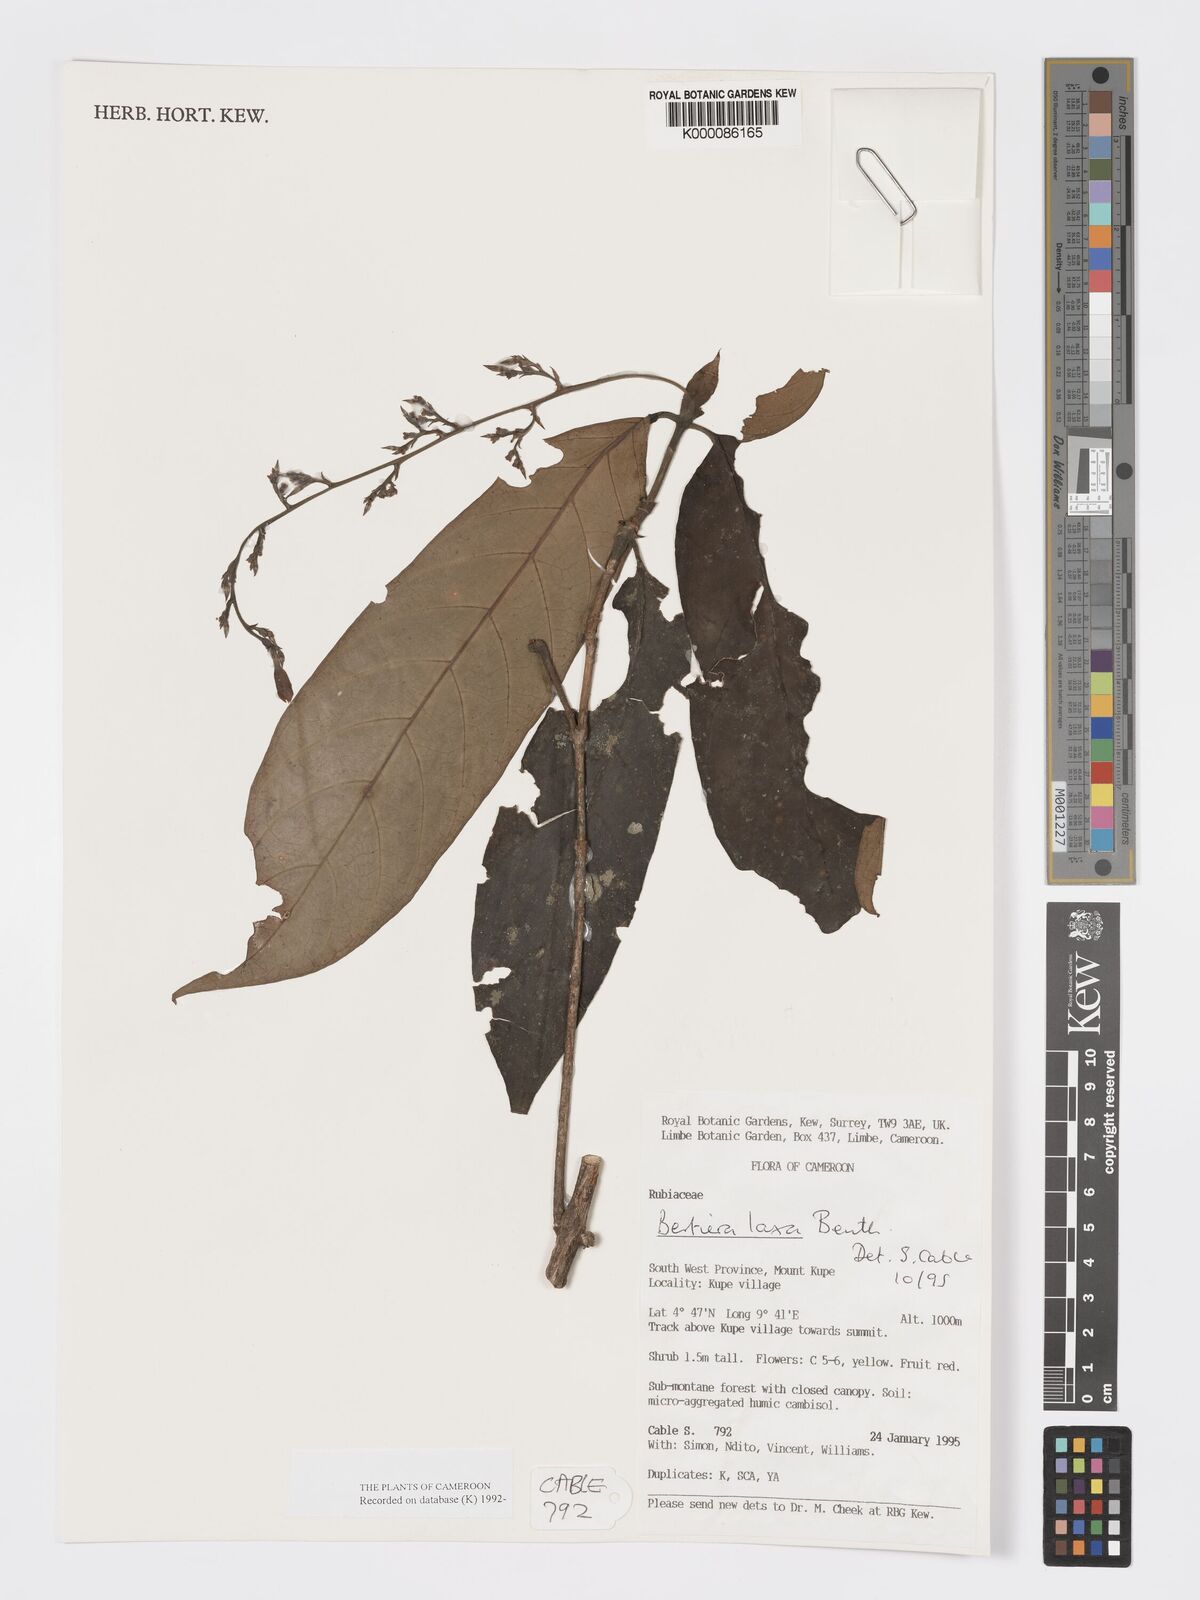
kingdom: Plantae
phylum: Tracheophyta
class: Magnoliopsida
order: Gentianales
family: Rubiaceae
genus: Bertiera
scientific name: Bertiera laxa
